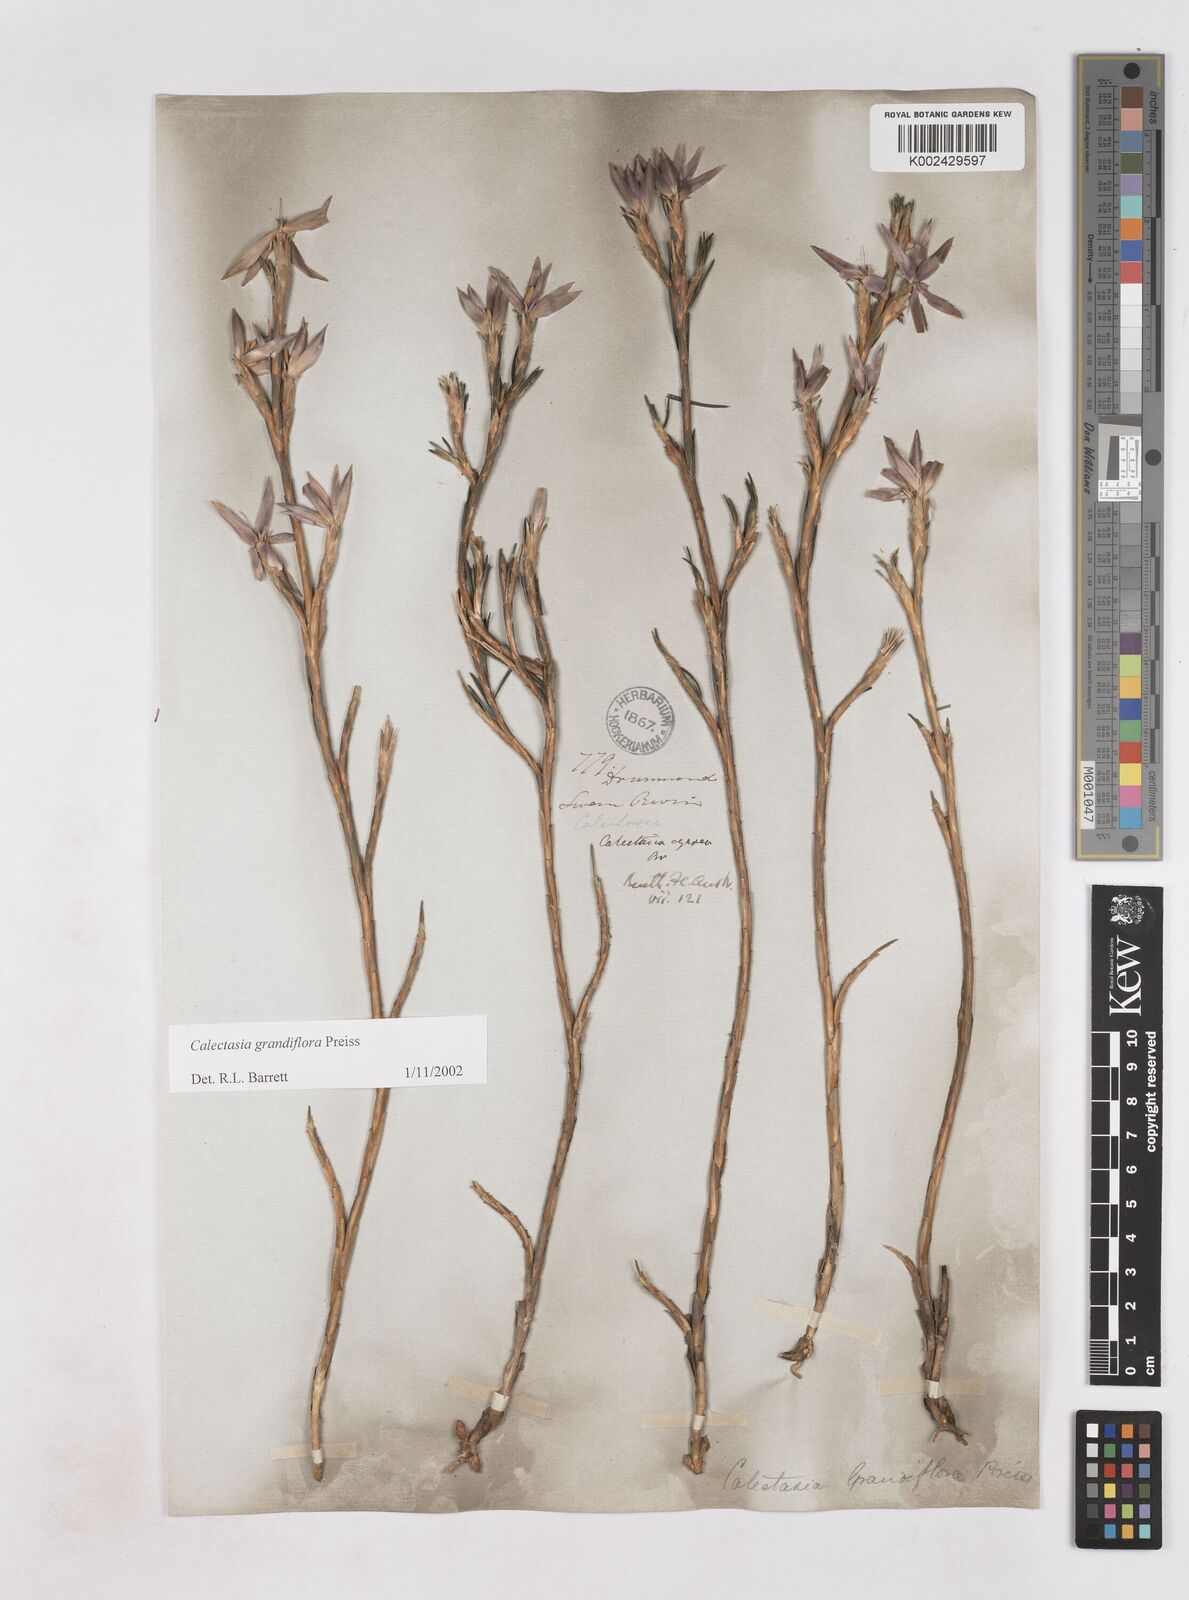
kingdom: Plantae
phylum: Tracheophyta
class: Liliopsida
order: Arecales
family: Dasypogonaceae
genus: Calectasia
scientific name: Calectasia grandiflora
